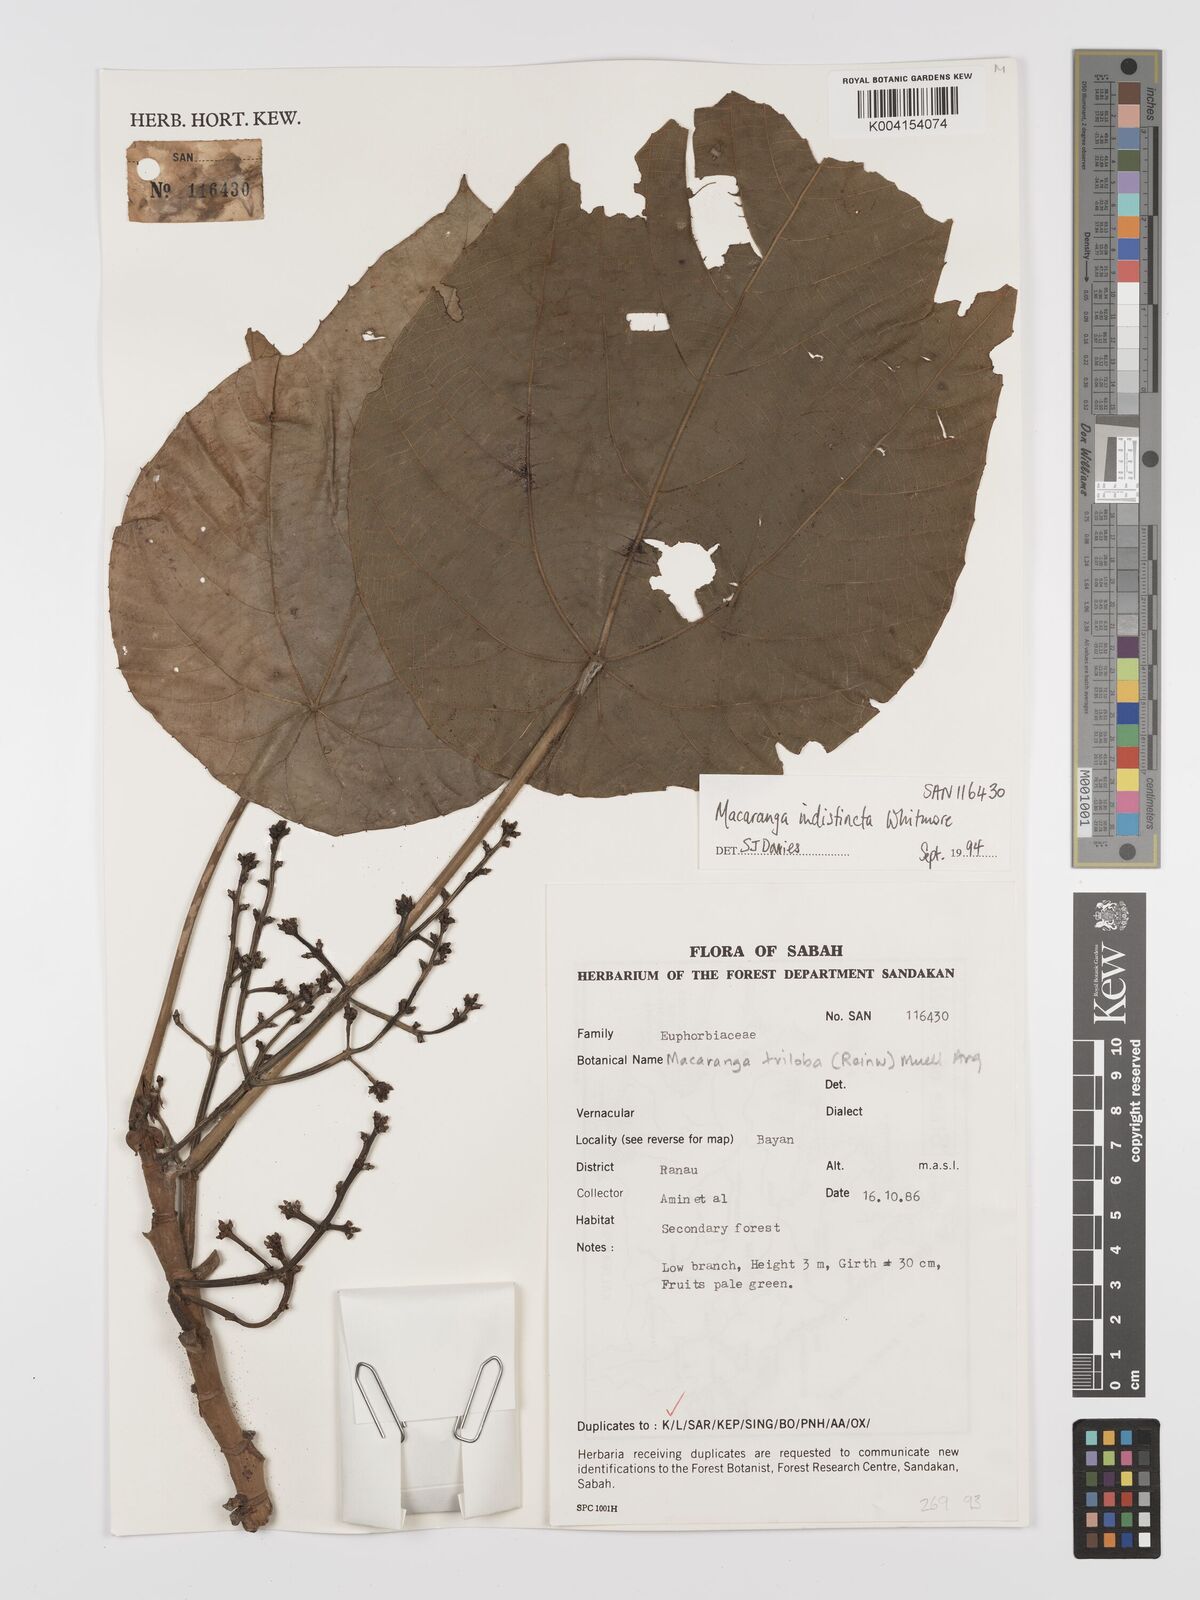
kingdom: Plantae
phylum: Tracheophyta
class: Magnoliopsida
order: Malpighiales
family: Euphorbiaceae
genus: Macaranga
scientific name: Macaranga indistincta
